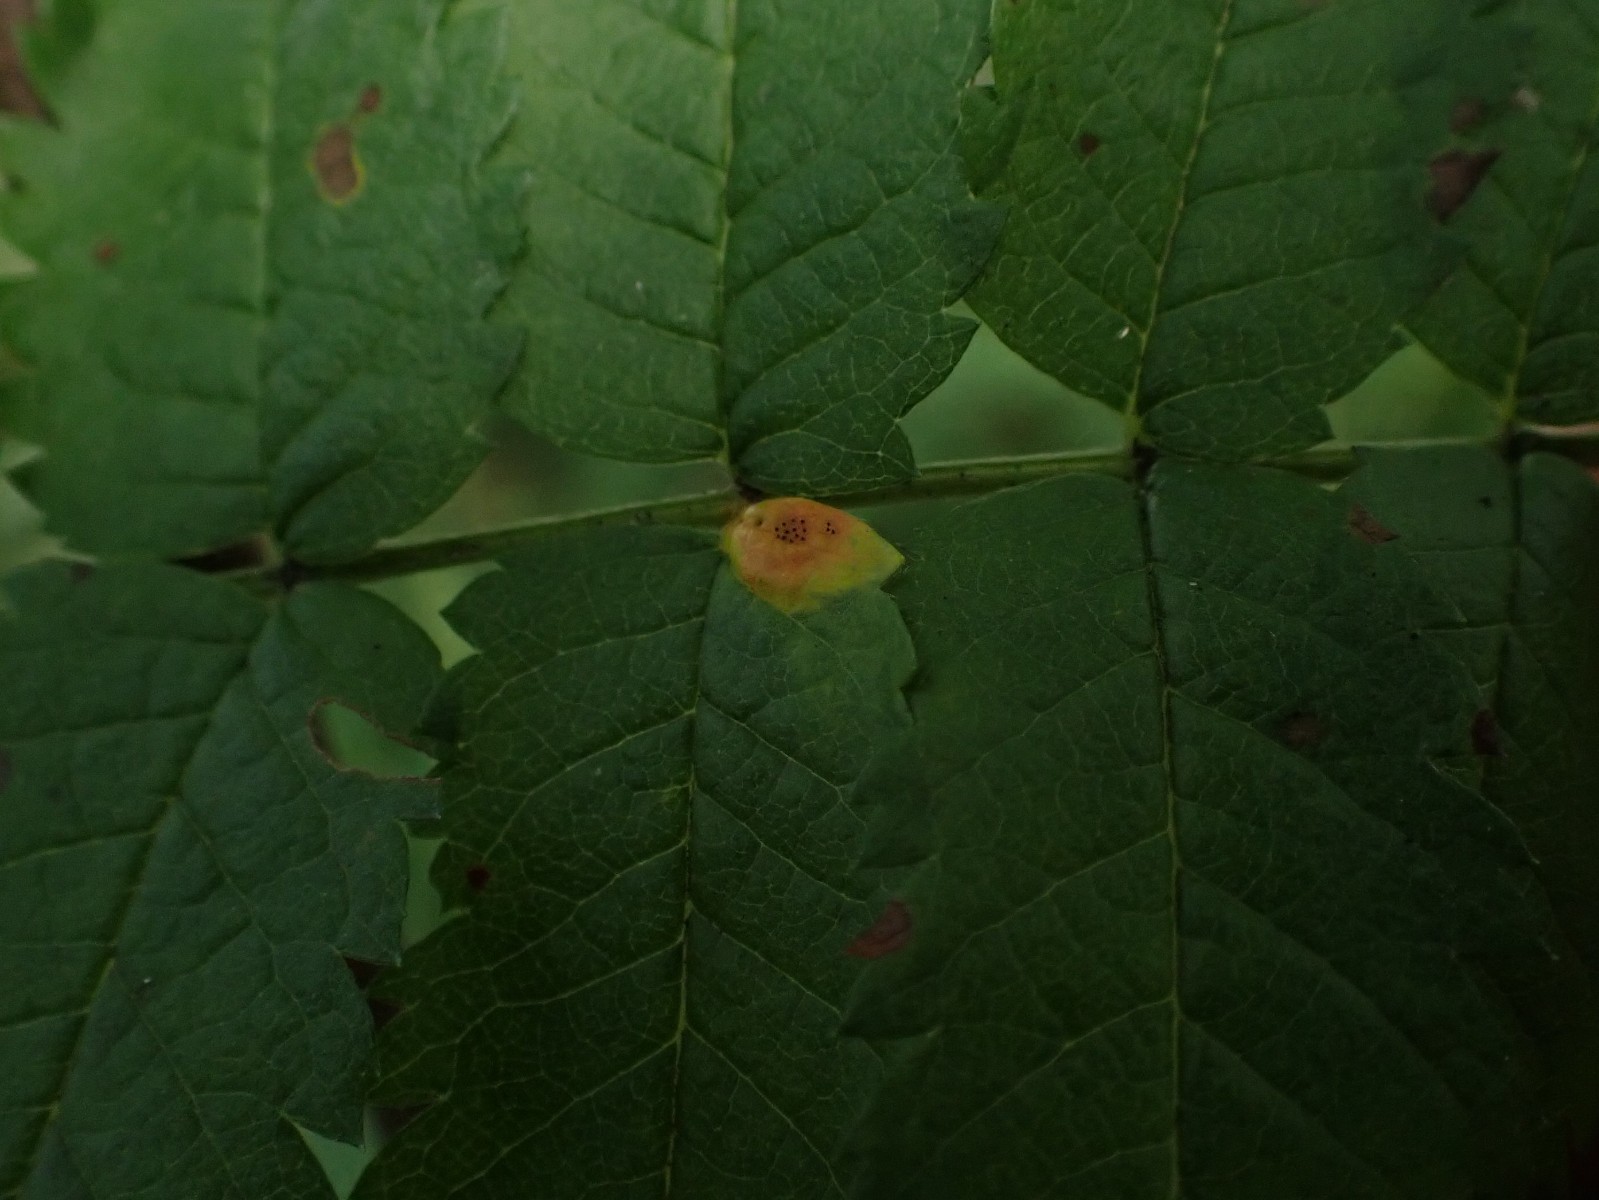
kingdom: Fungi
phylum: Basidiomycota
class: Pucciniomycetes
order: Pucciniales
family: Gymnosporangiaceae
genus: Gymnosporangium
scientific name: Gymnosporangium cornutum
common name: rønnehorn-bævrerust
